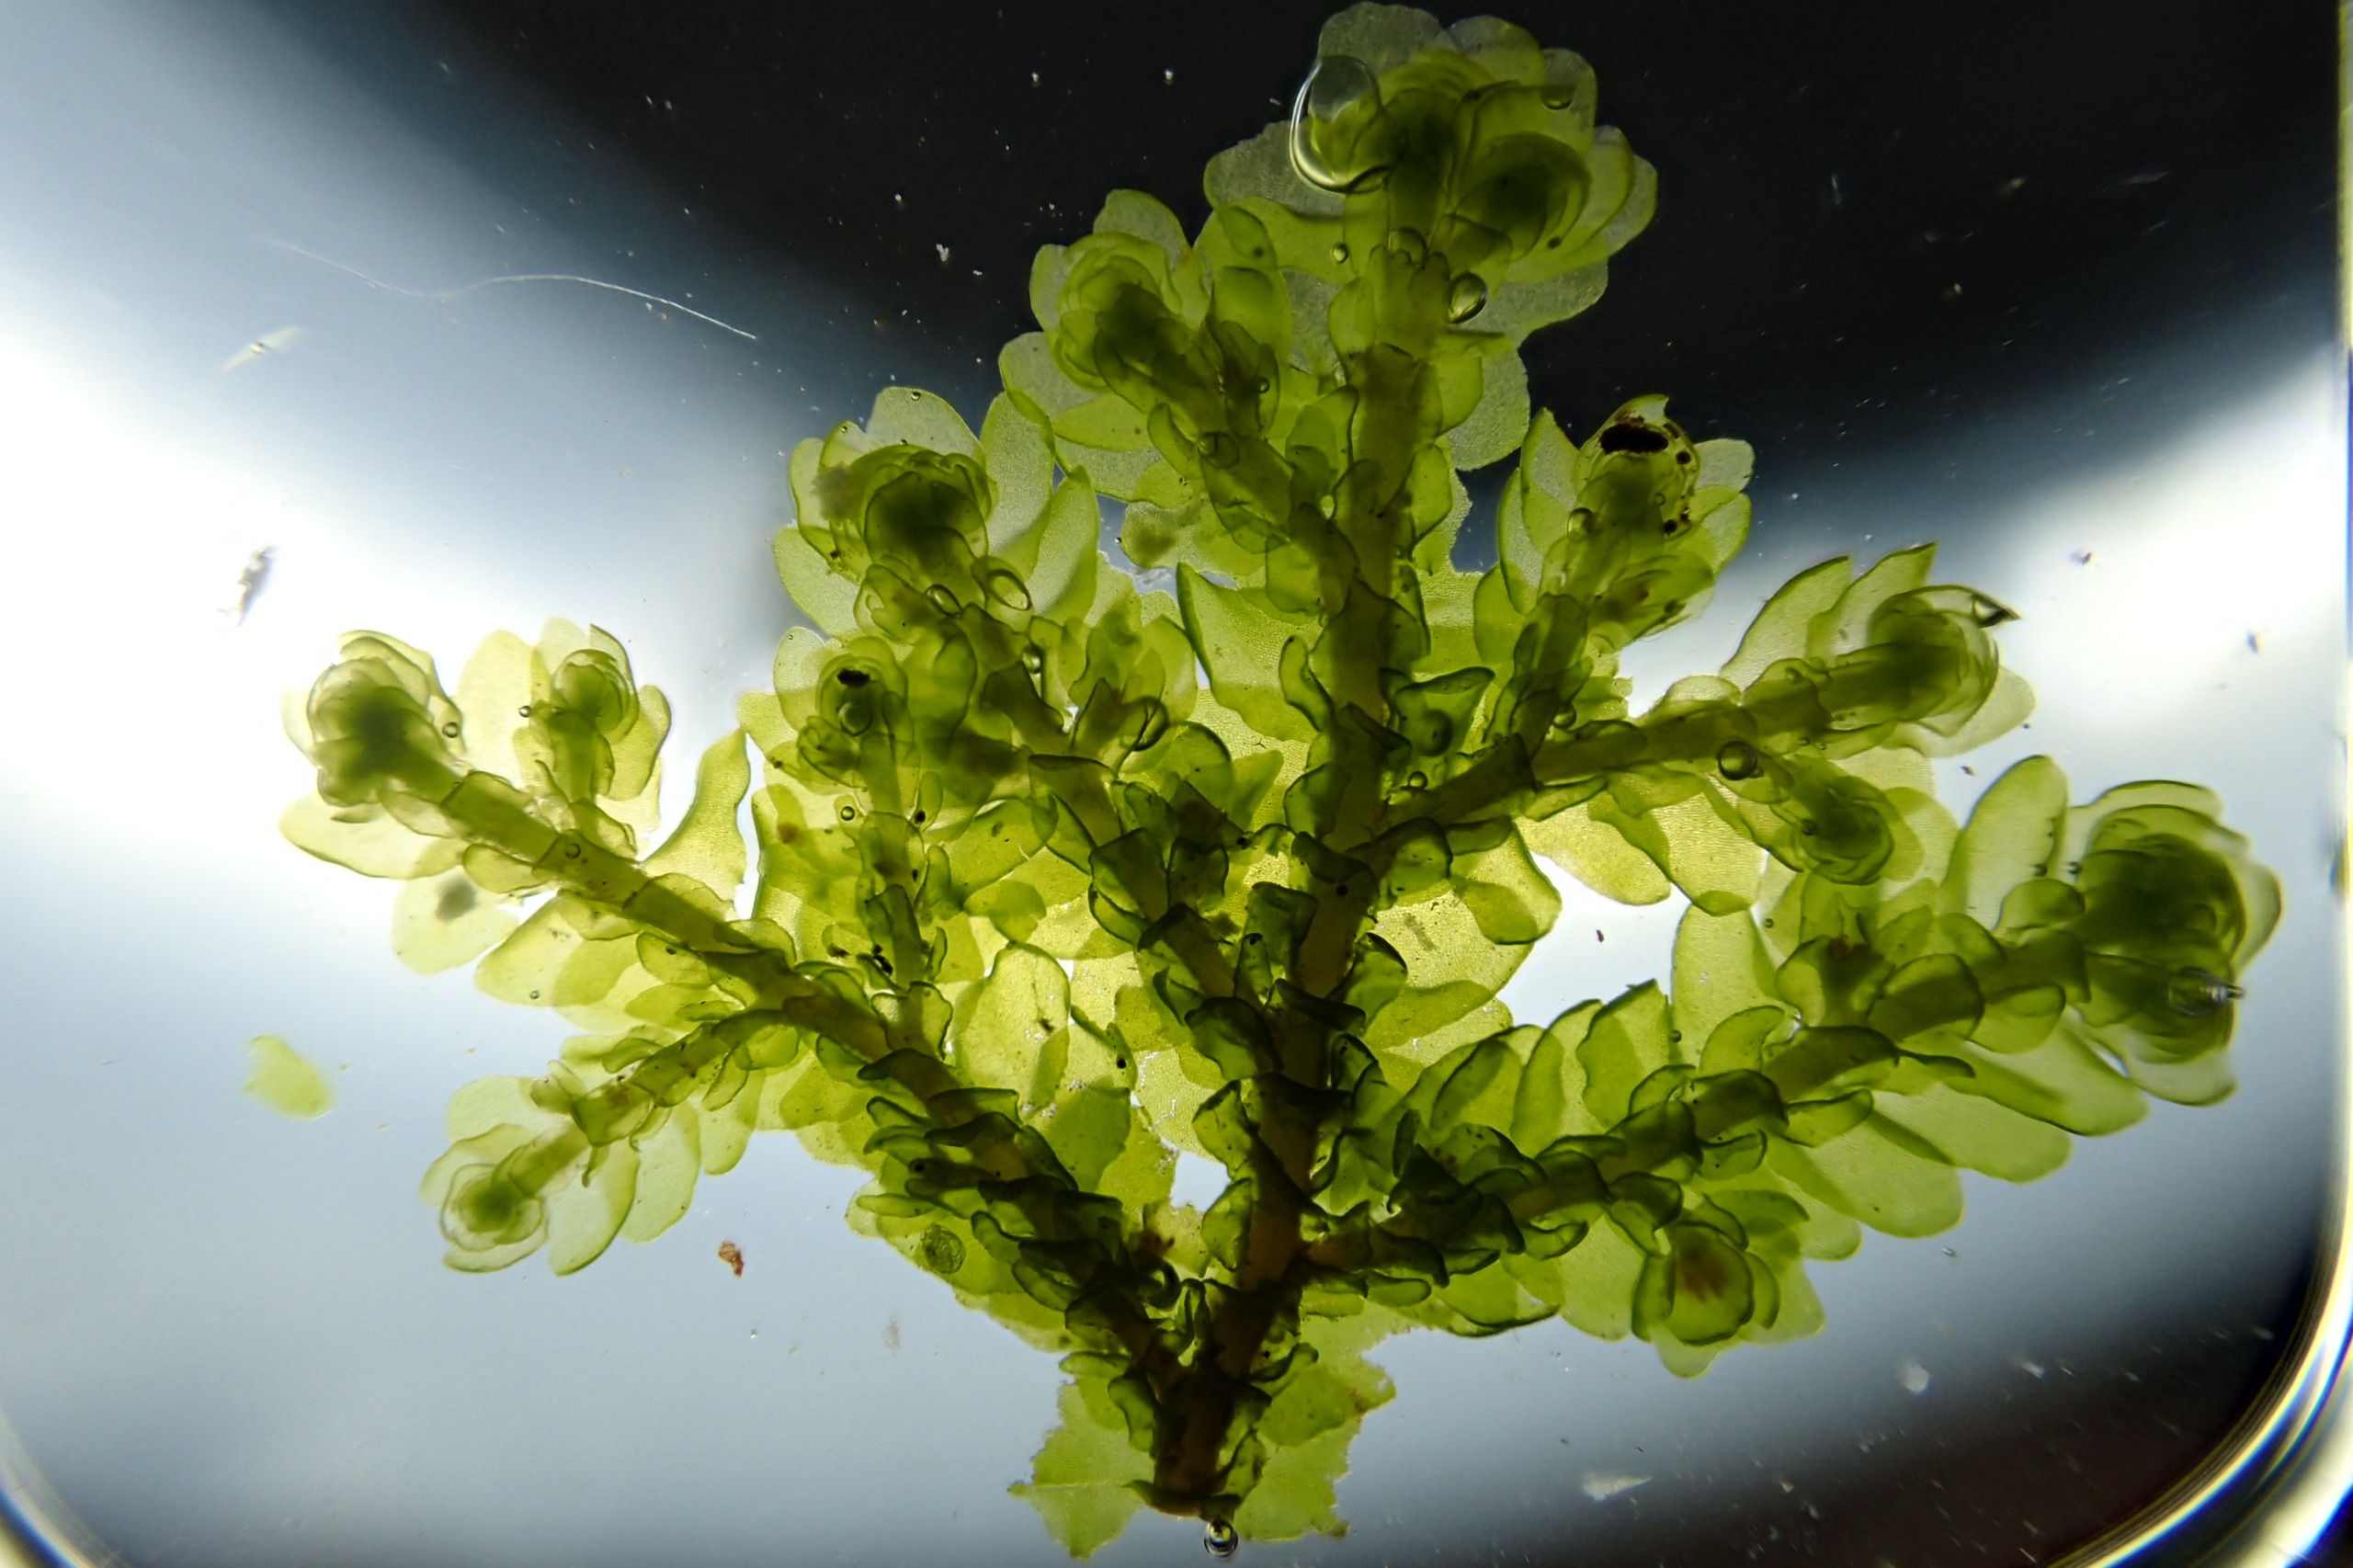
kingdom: Plantae
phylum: Marchantiophyta
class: Jungermanniopsida
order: Porellales
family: Porellaceae
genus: Porella
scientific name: Porella platyphylla
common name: Almindelig skælryg
